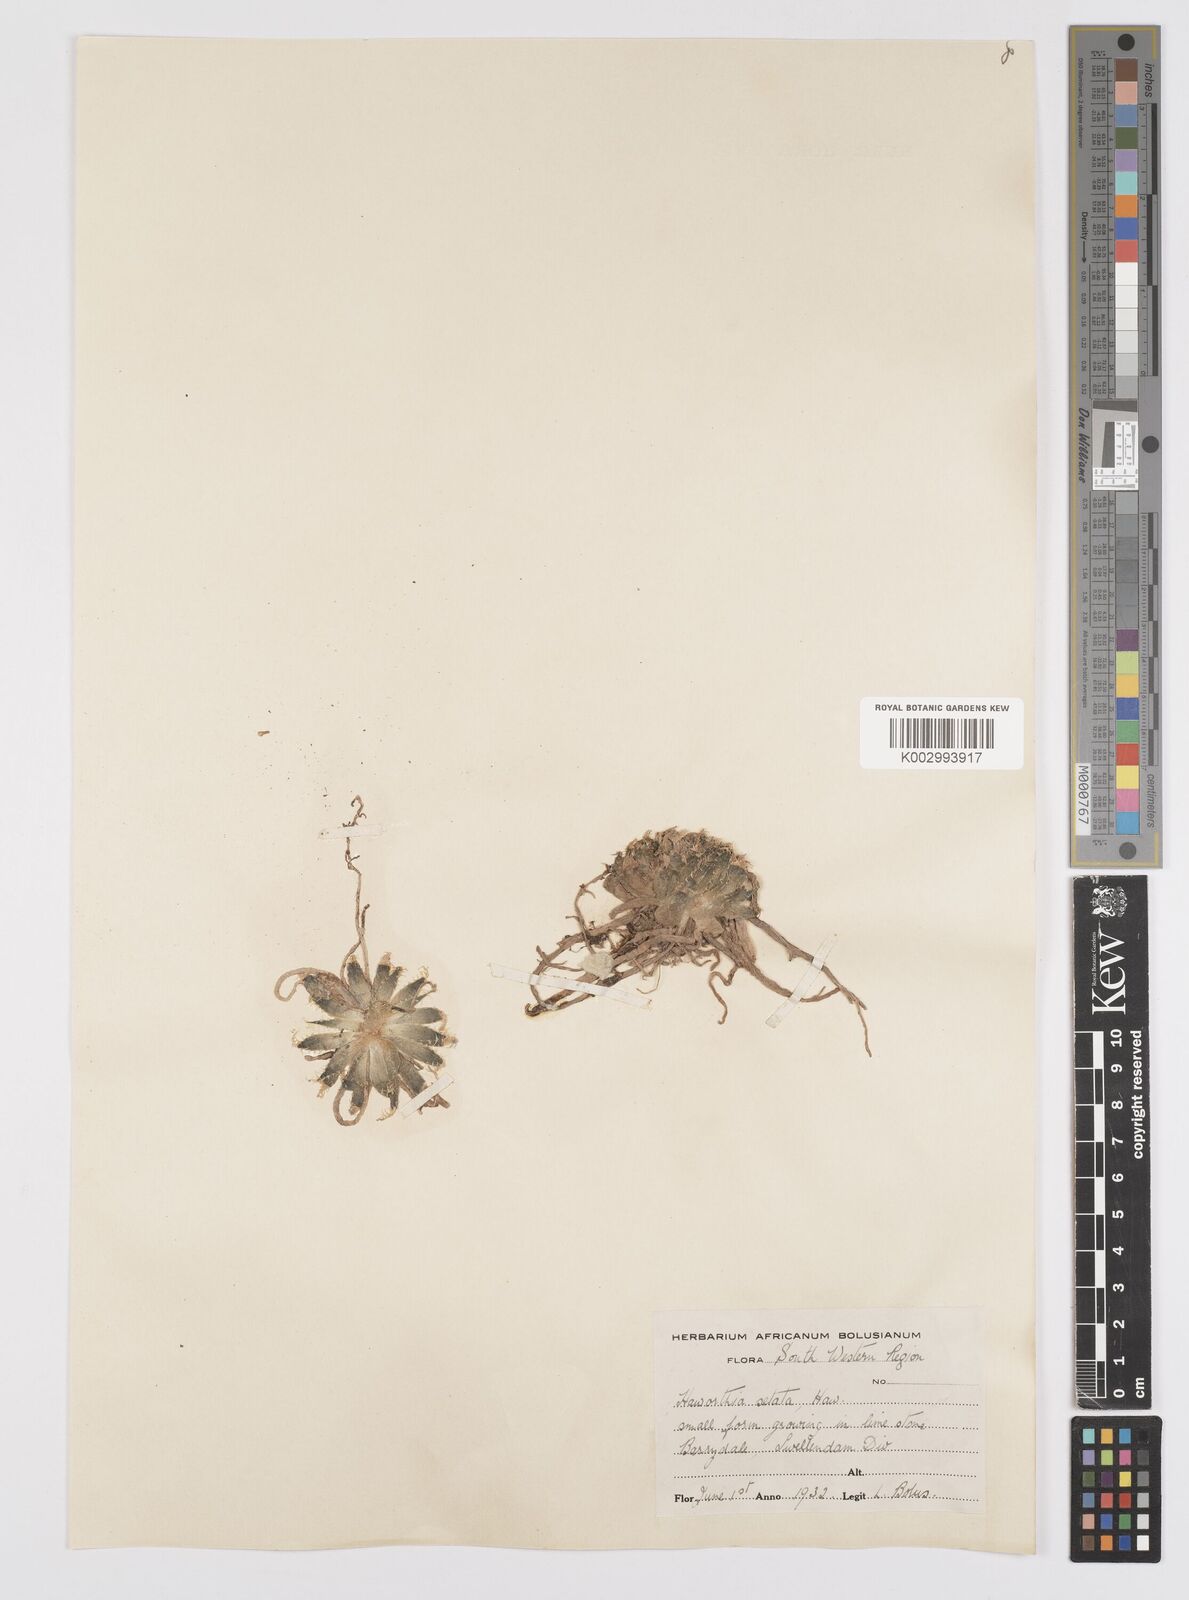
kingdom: Plantae
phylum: Tracheophyta
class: Liliopsida
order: Asparagales
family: Asphodelaceae
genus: Haworthia
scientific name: Haworthia arachnoidea
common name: Cobweb-aloe
